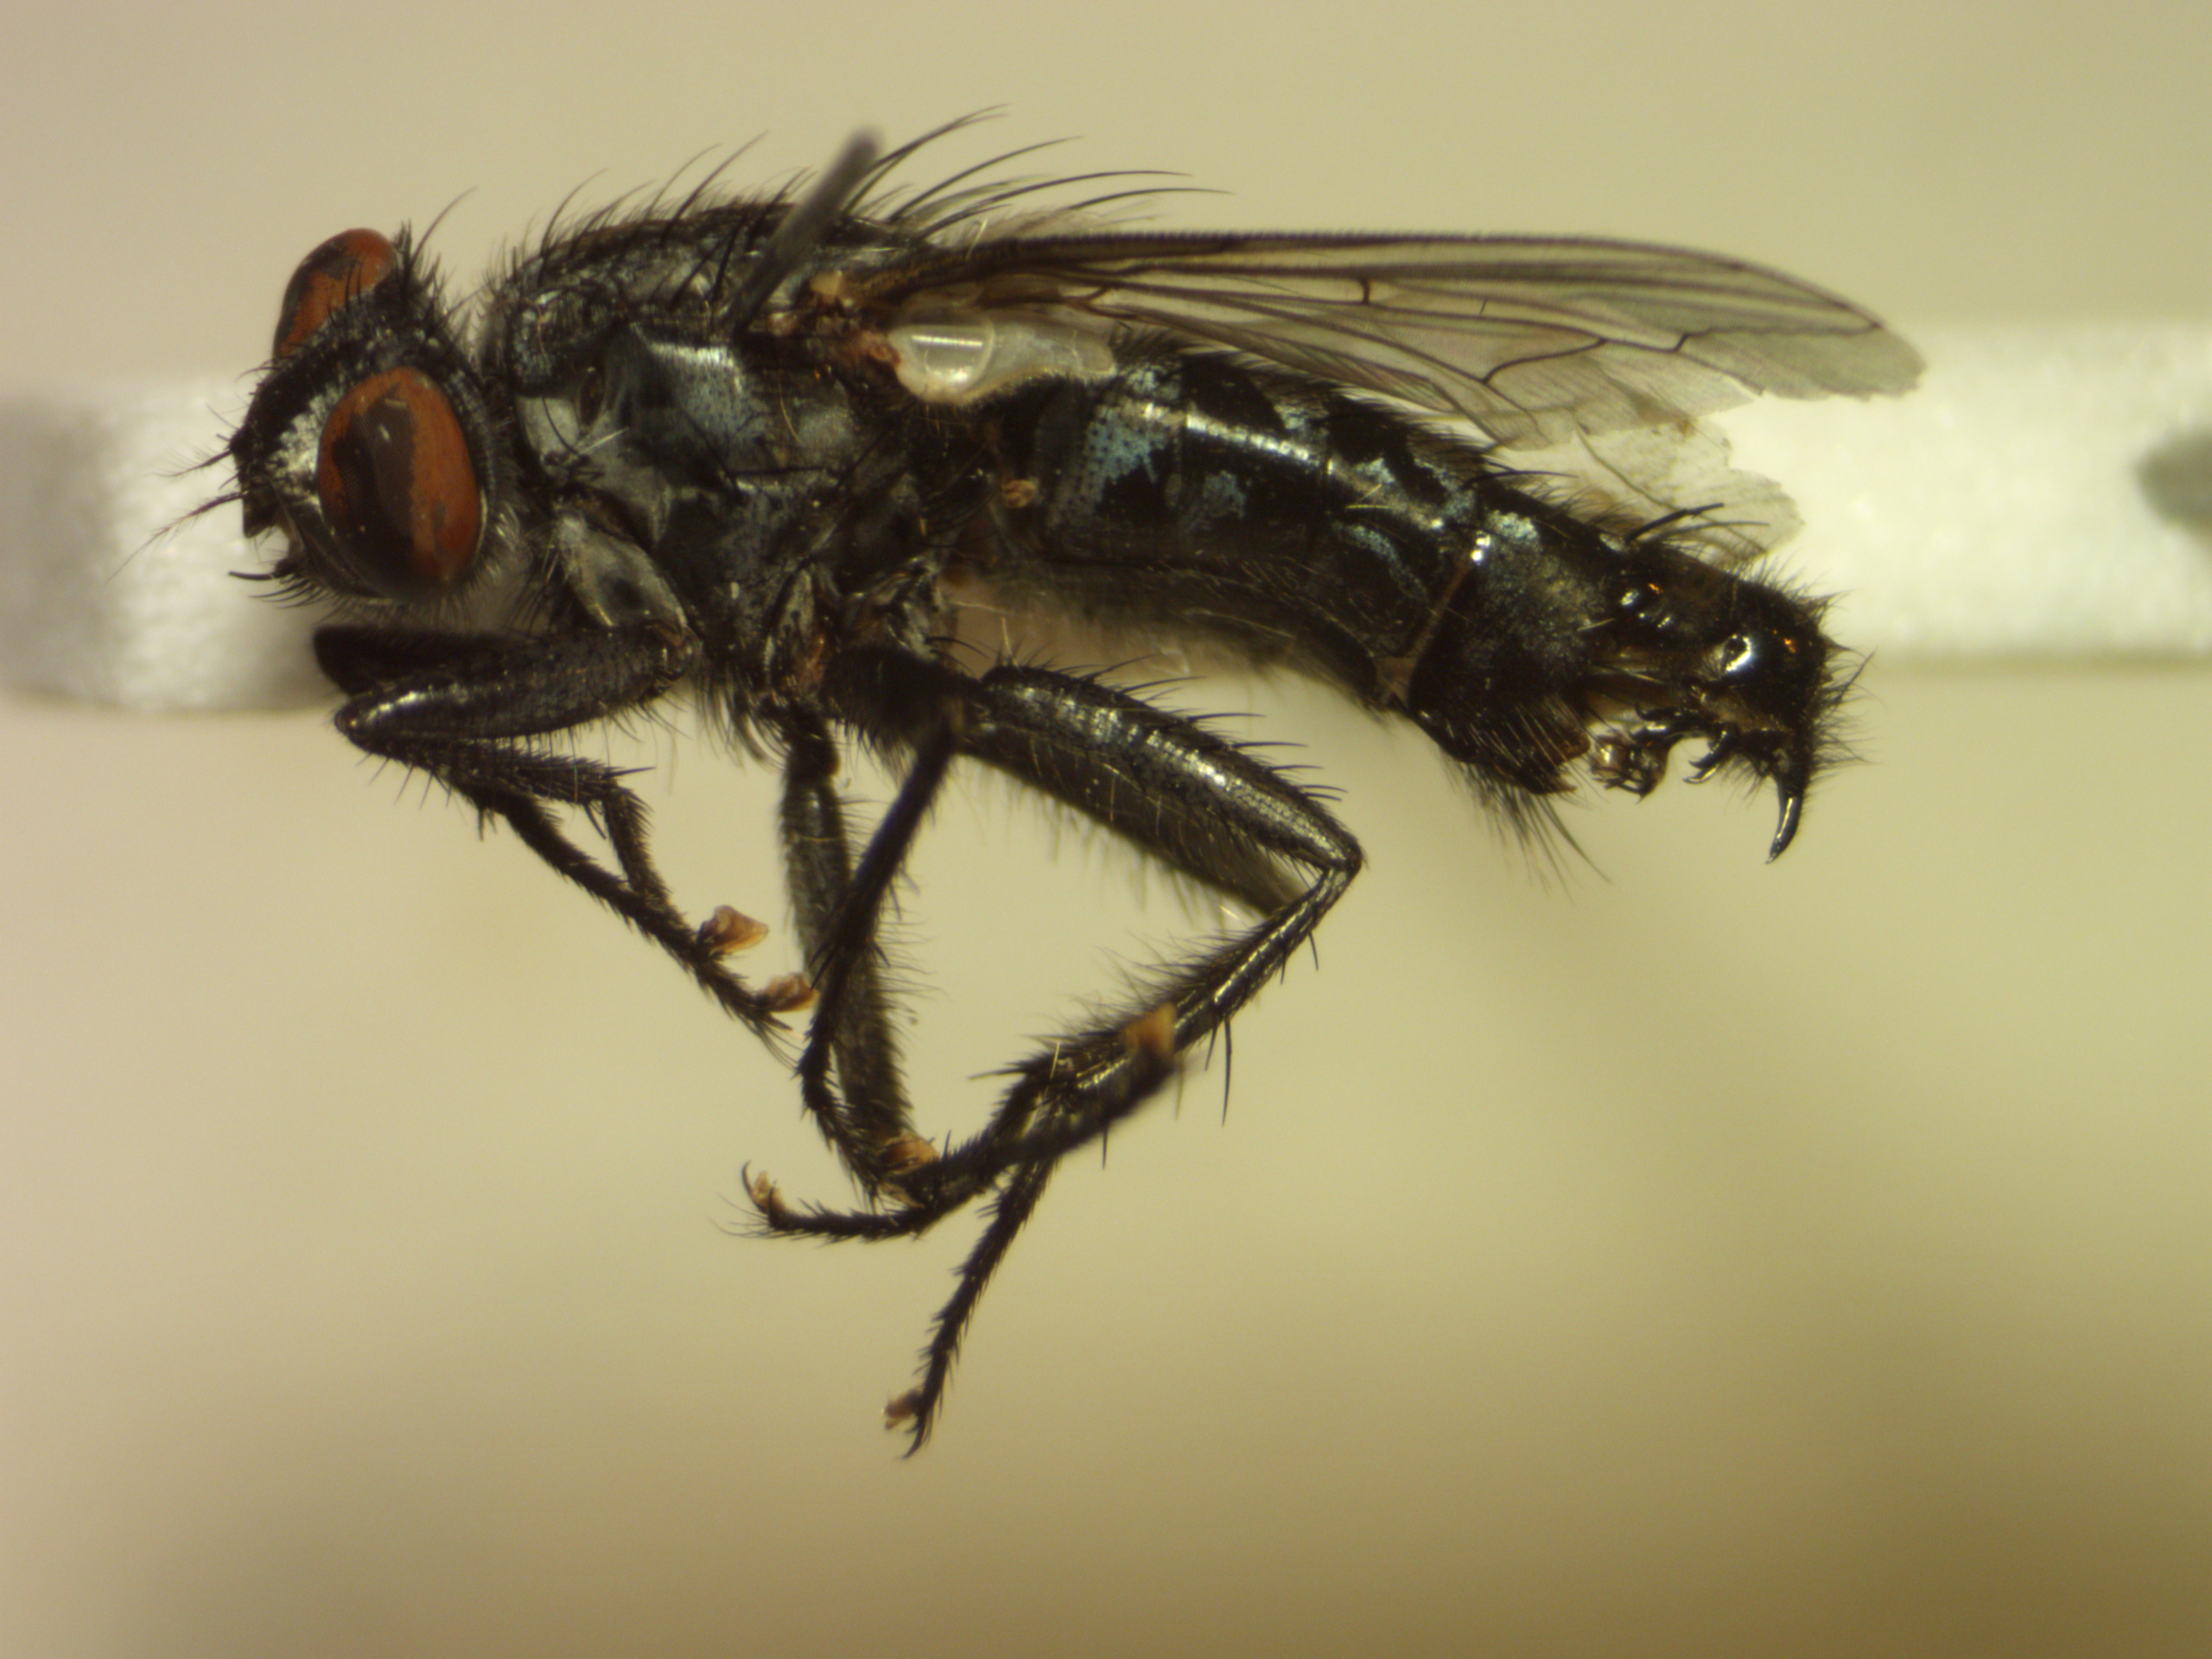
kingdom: Animalia
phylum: Arthropoda
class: Insecta
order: Diptera
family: Sarcophagidae
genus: Sarcophaga
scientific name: Sarcophaga portschinskyi
